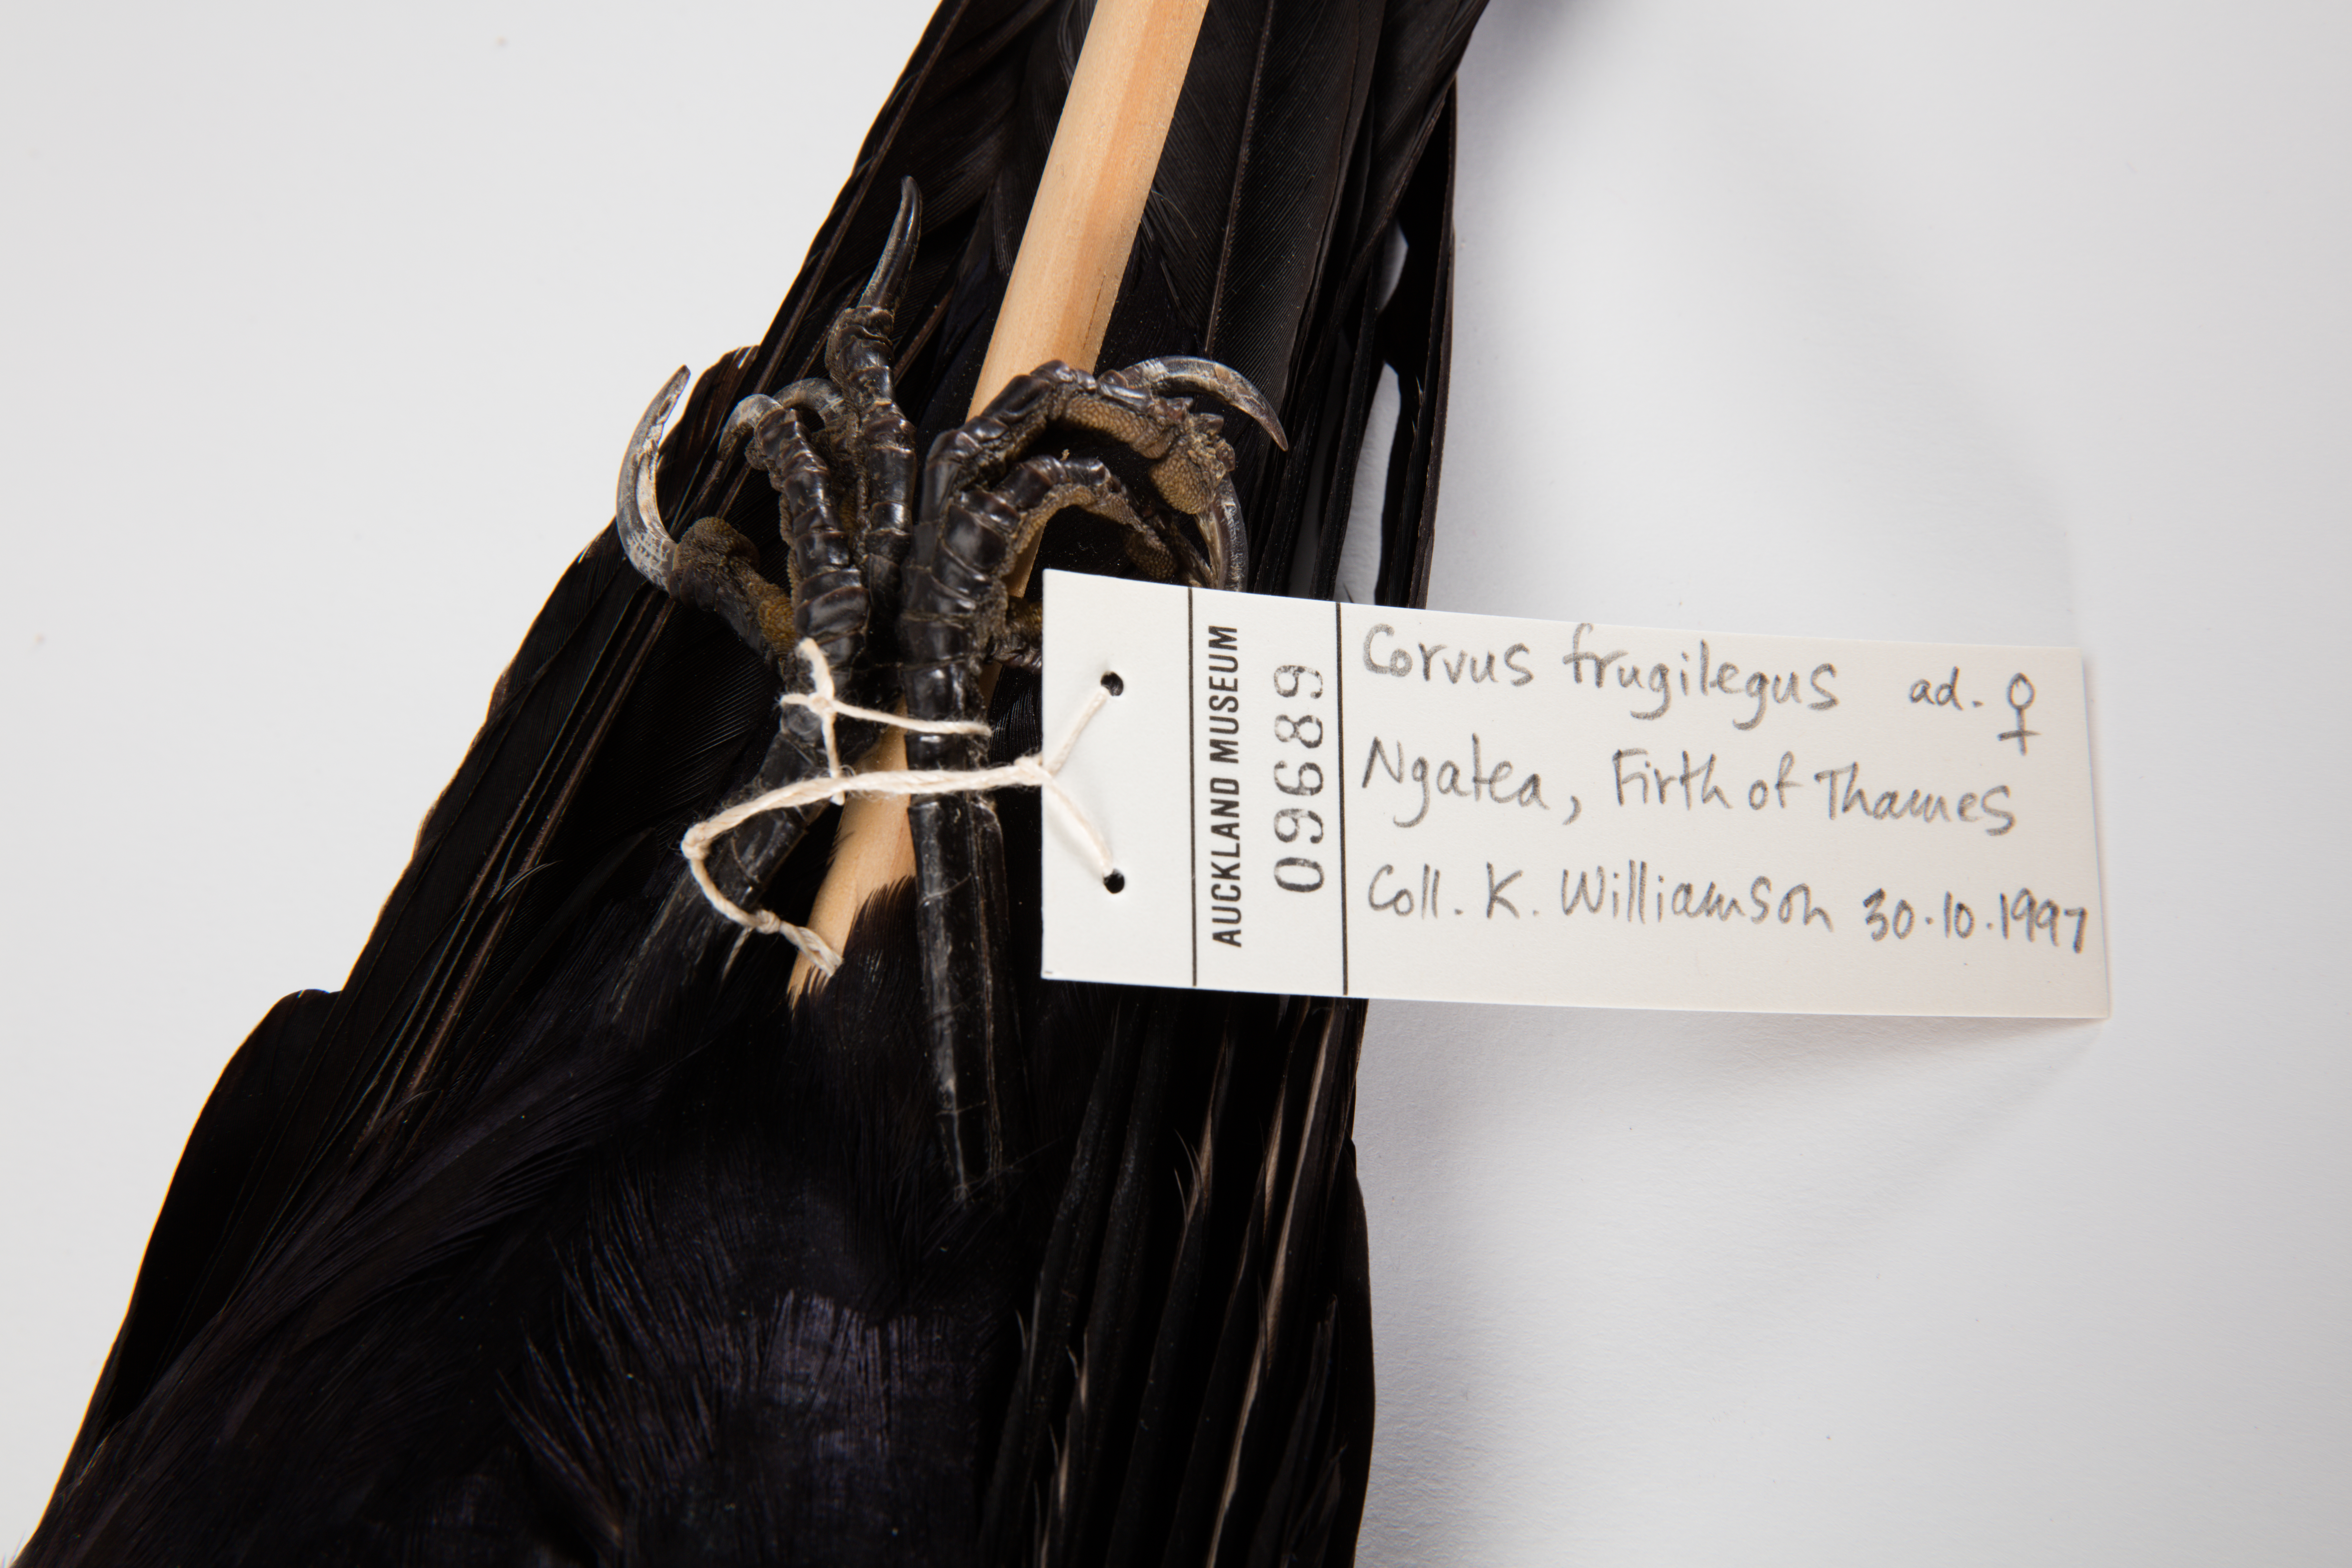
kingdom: Animalia
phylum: Chordata
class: Aves
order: Passeriformes
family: Corvidae
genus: Corvus
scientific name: Corvus frugilegus
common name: Rook
